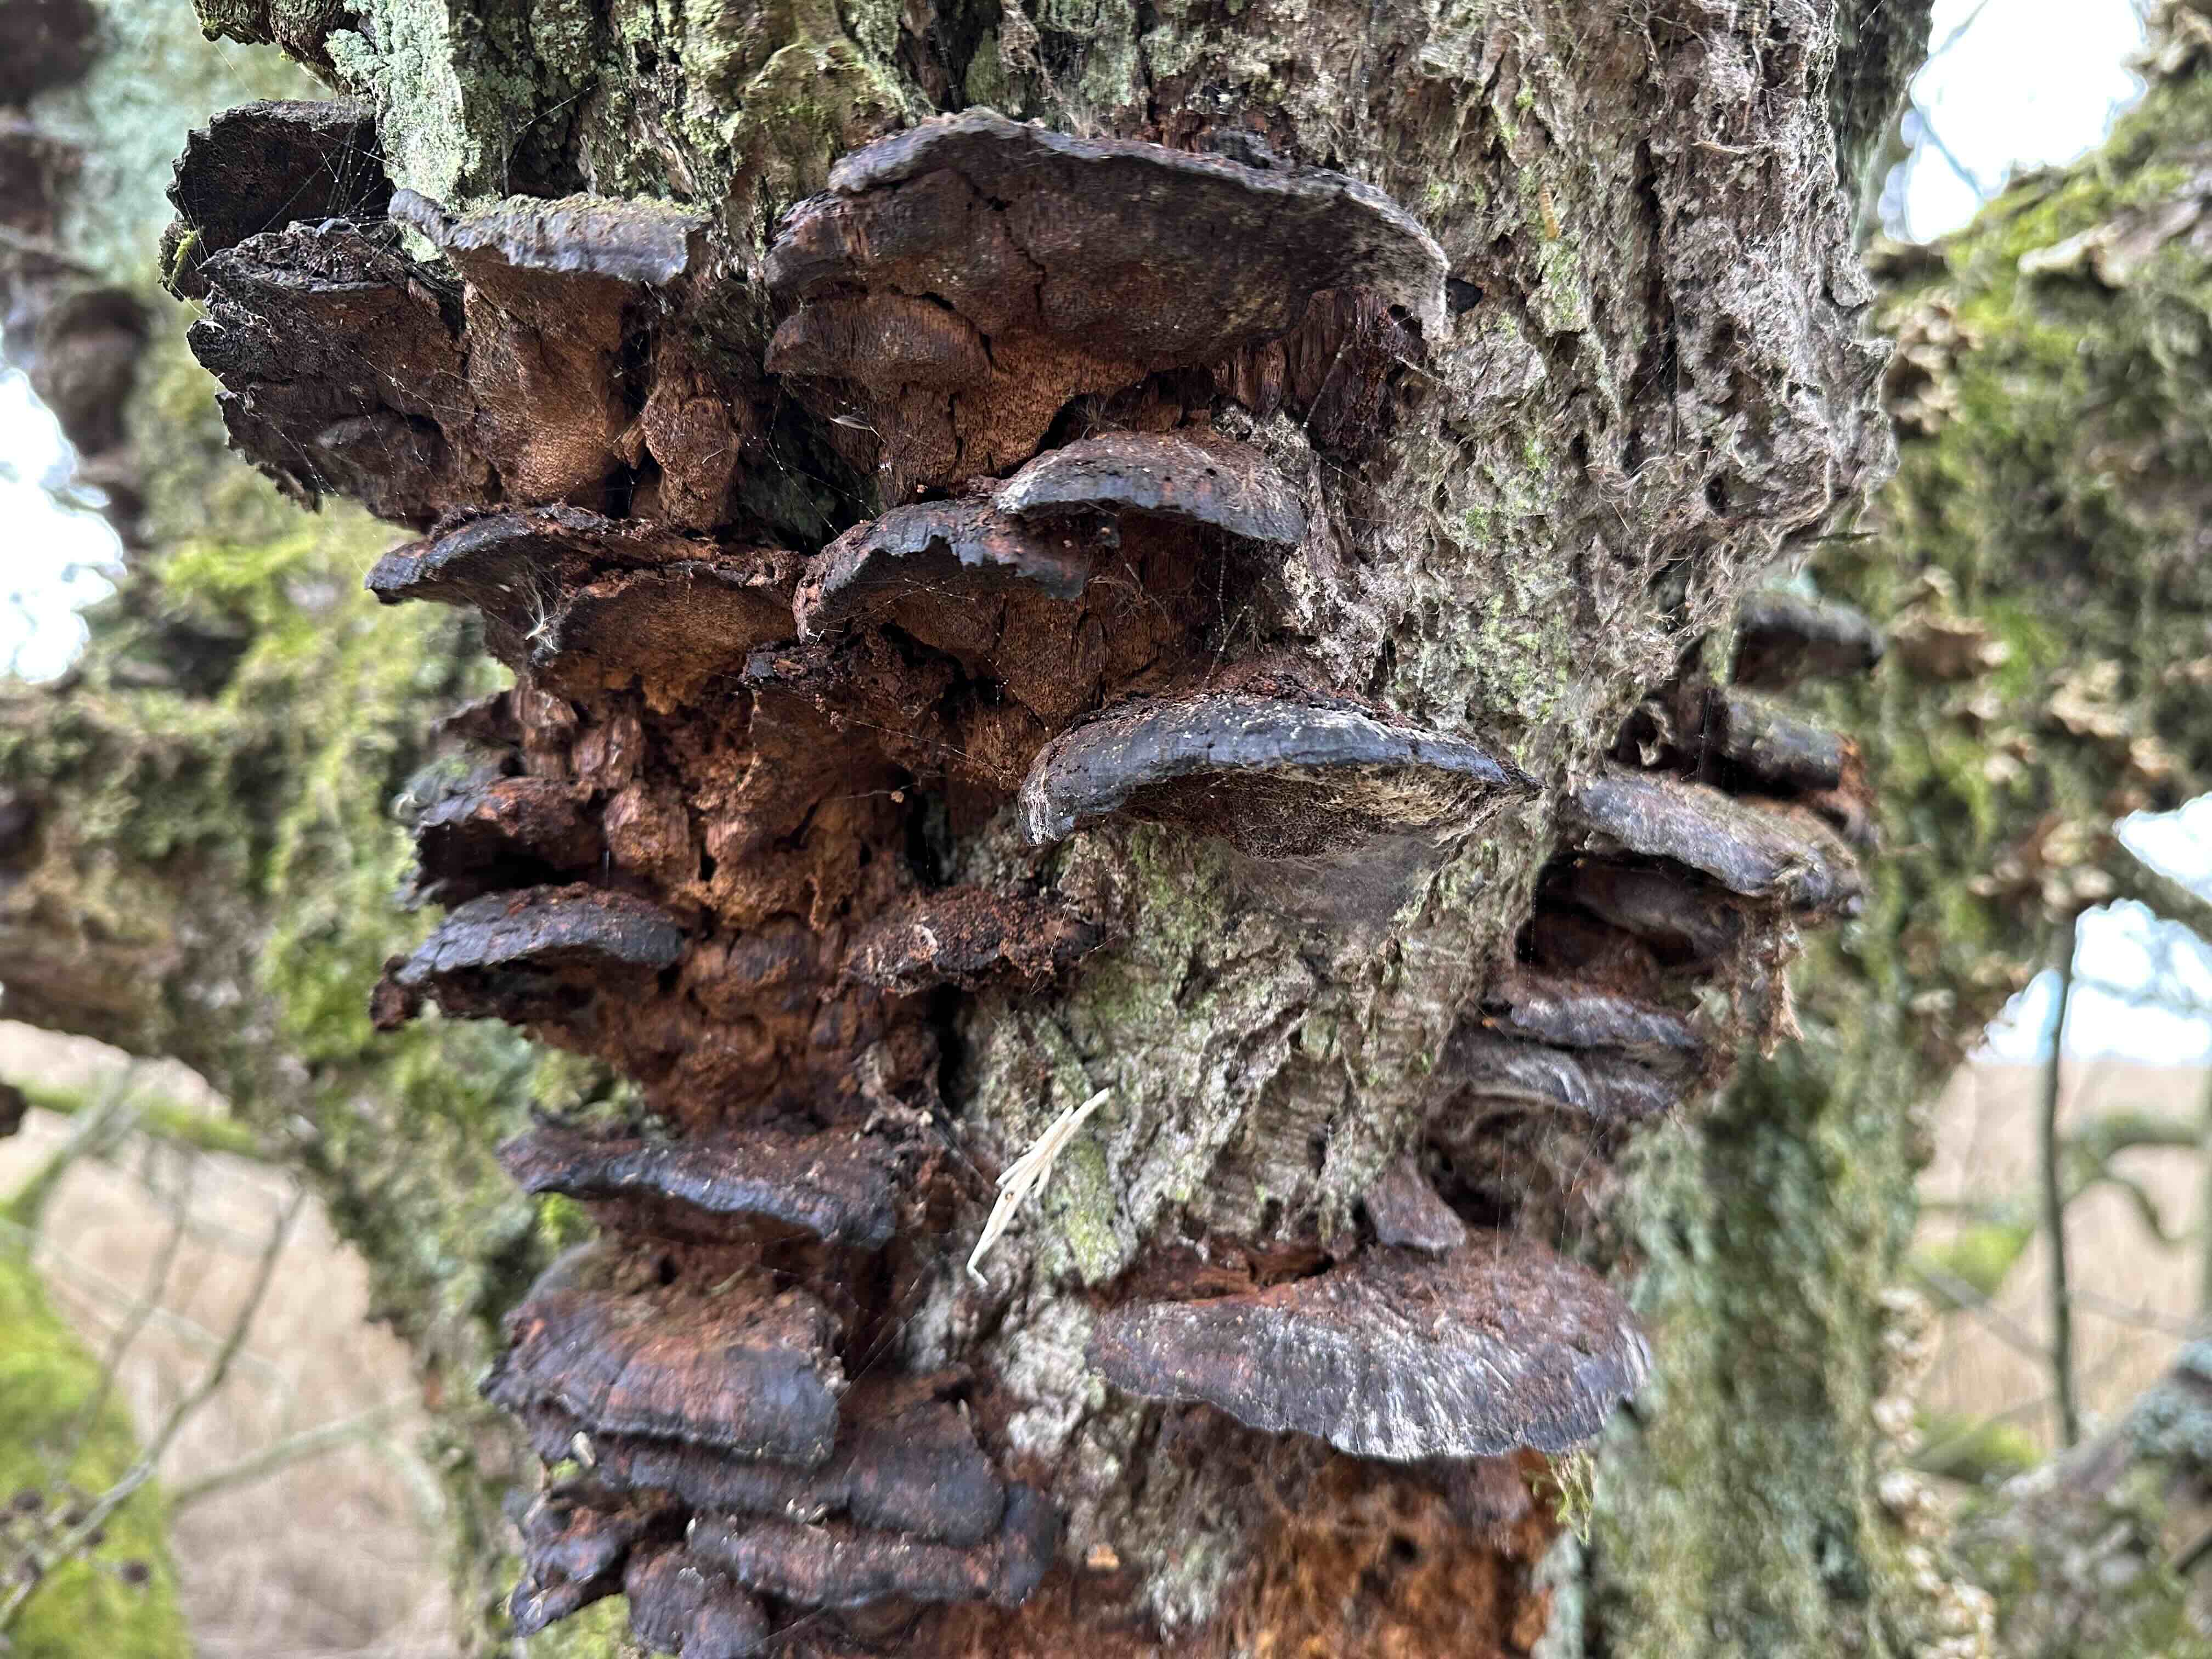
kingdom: Fungi
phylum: Basidiomycota
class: Agaricomycetes
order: Hymenochaetales
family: Hymenochaetaceae
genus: Xanthoporia
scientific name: Xanthoporia radiata
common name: elle-spejlporesvamp
